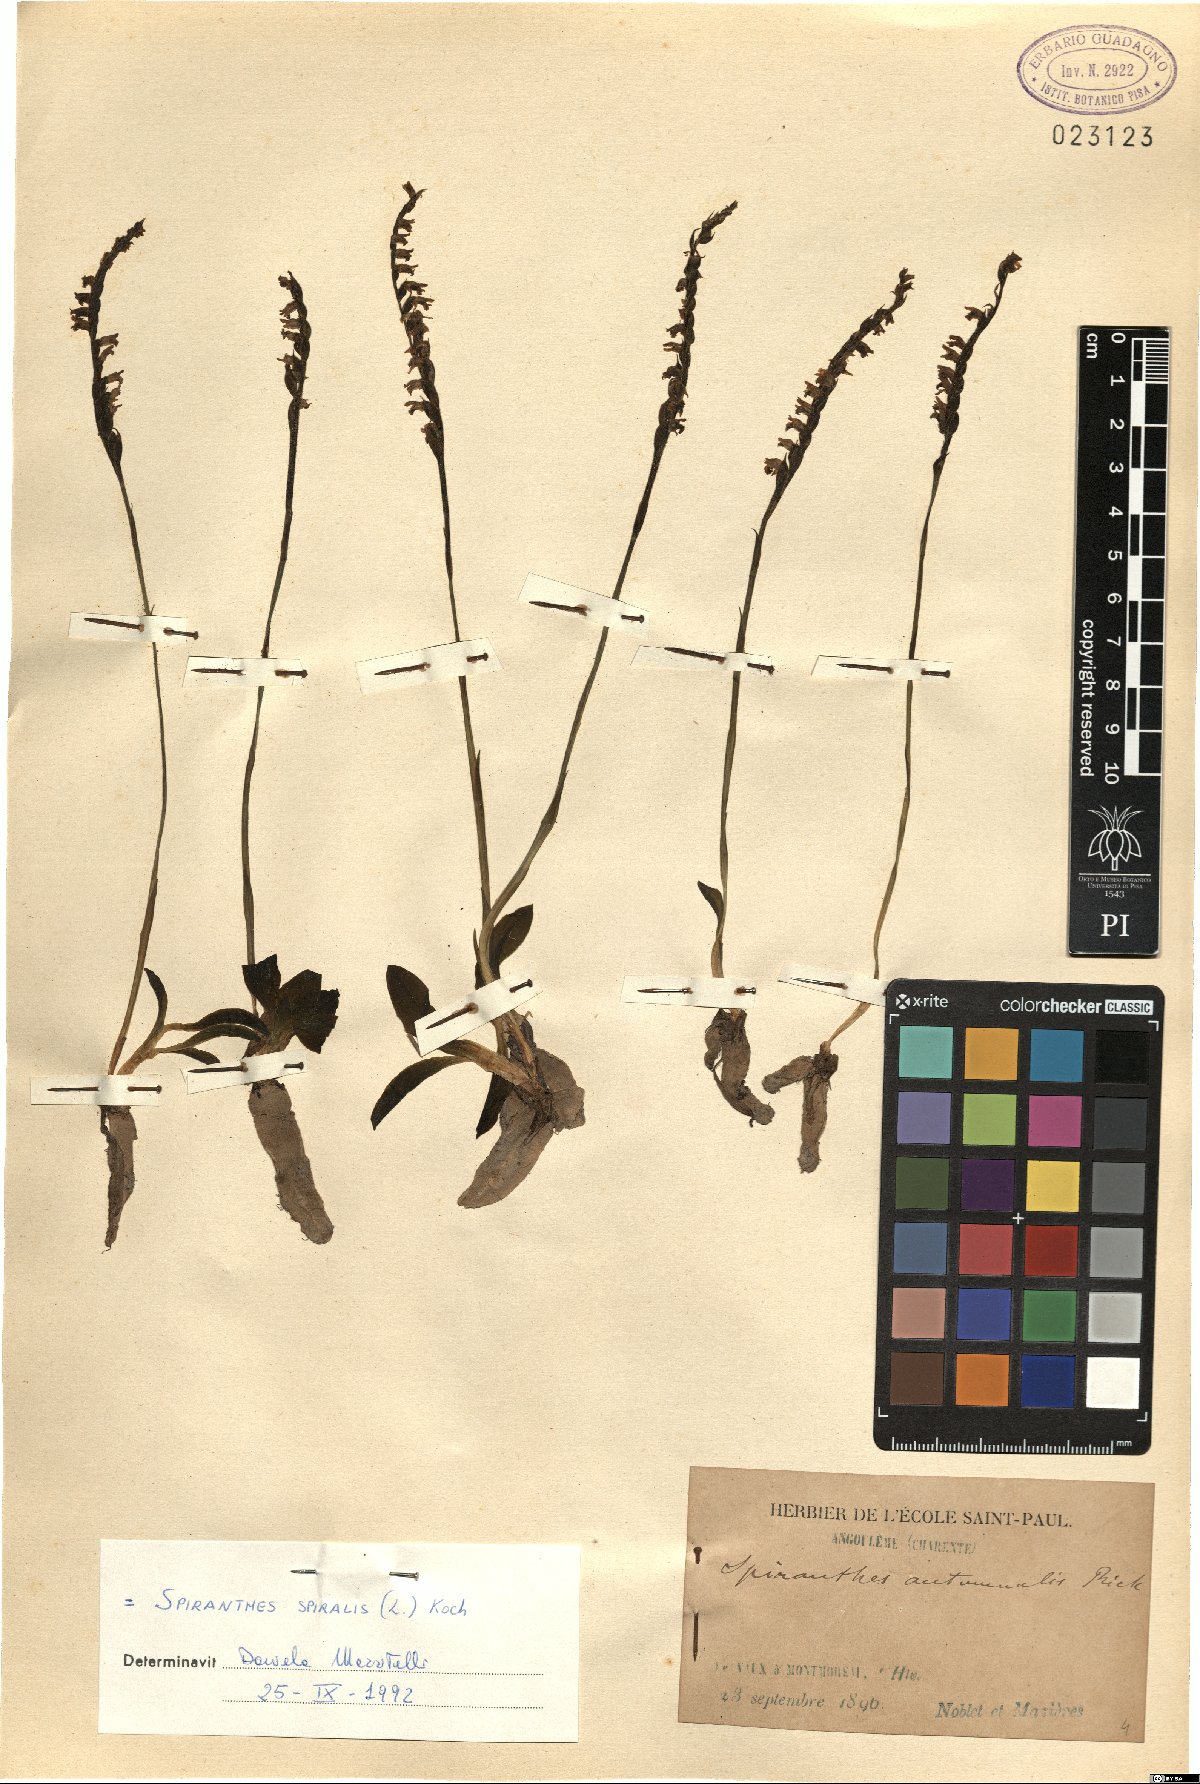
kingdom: Plantae
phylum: Tracheophyta
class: Liliopsida
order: Asparagales
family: Orchidaceae
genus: Spiranthes
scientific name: Spiranthes spiralis
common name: Autumn lady's-tresses
